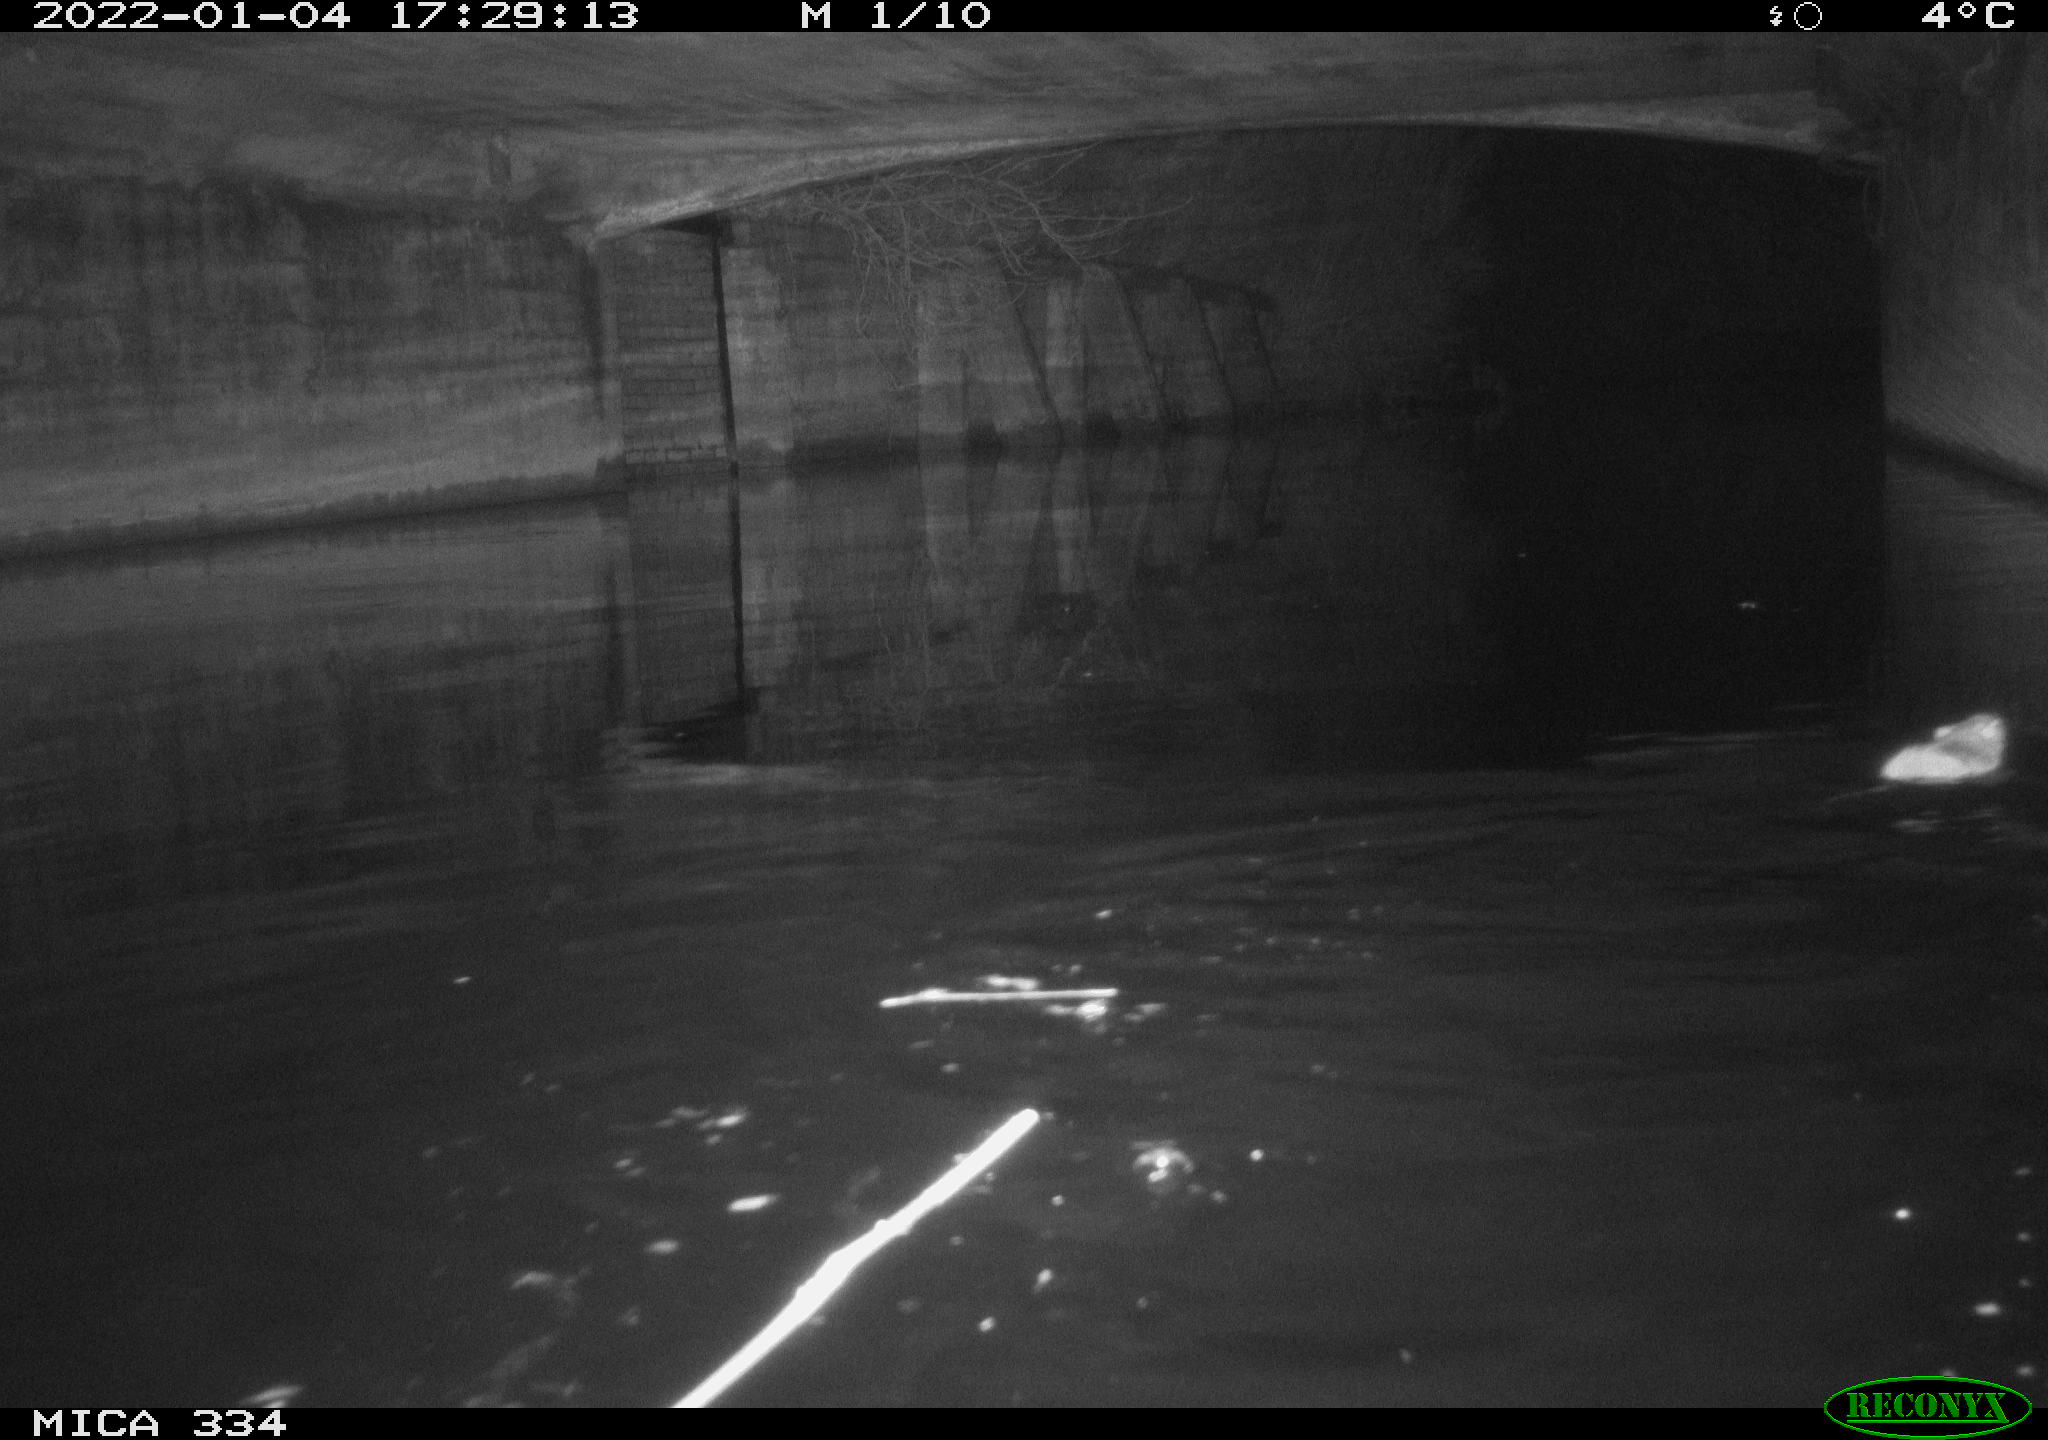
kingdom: Animalia
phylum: Chordata
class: Mammalia
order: Rodentia
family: Muridae
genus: Rattus
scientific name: Rattus norvegicus
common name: Brown rat
